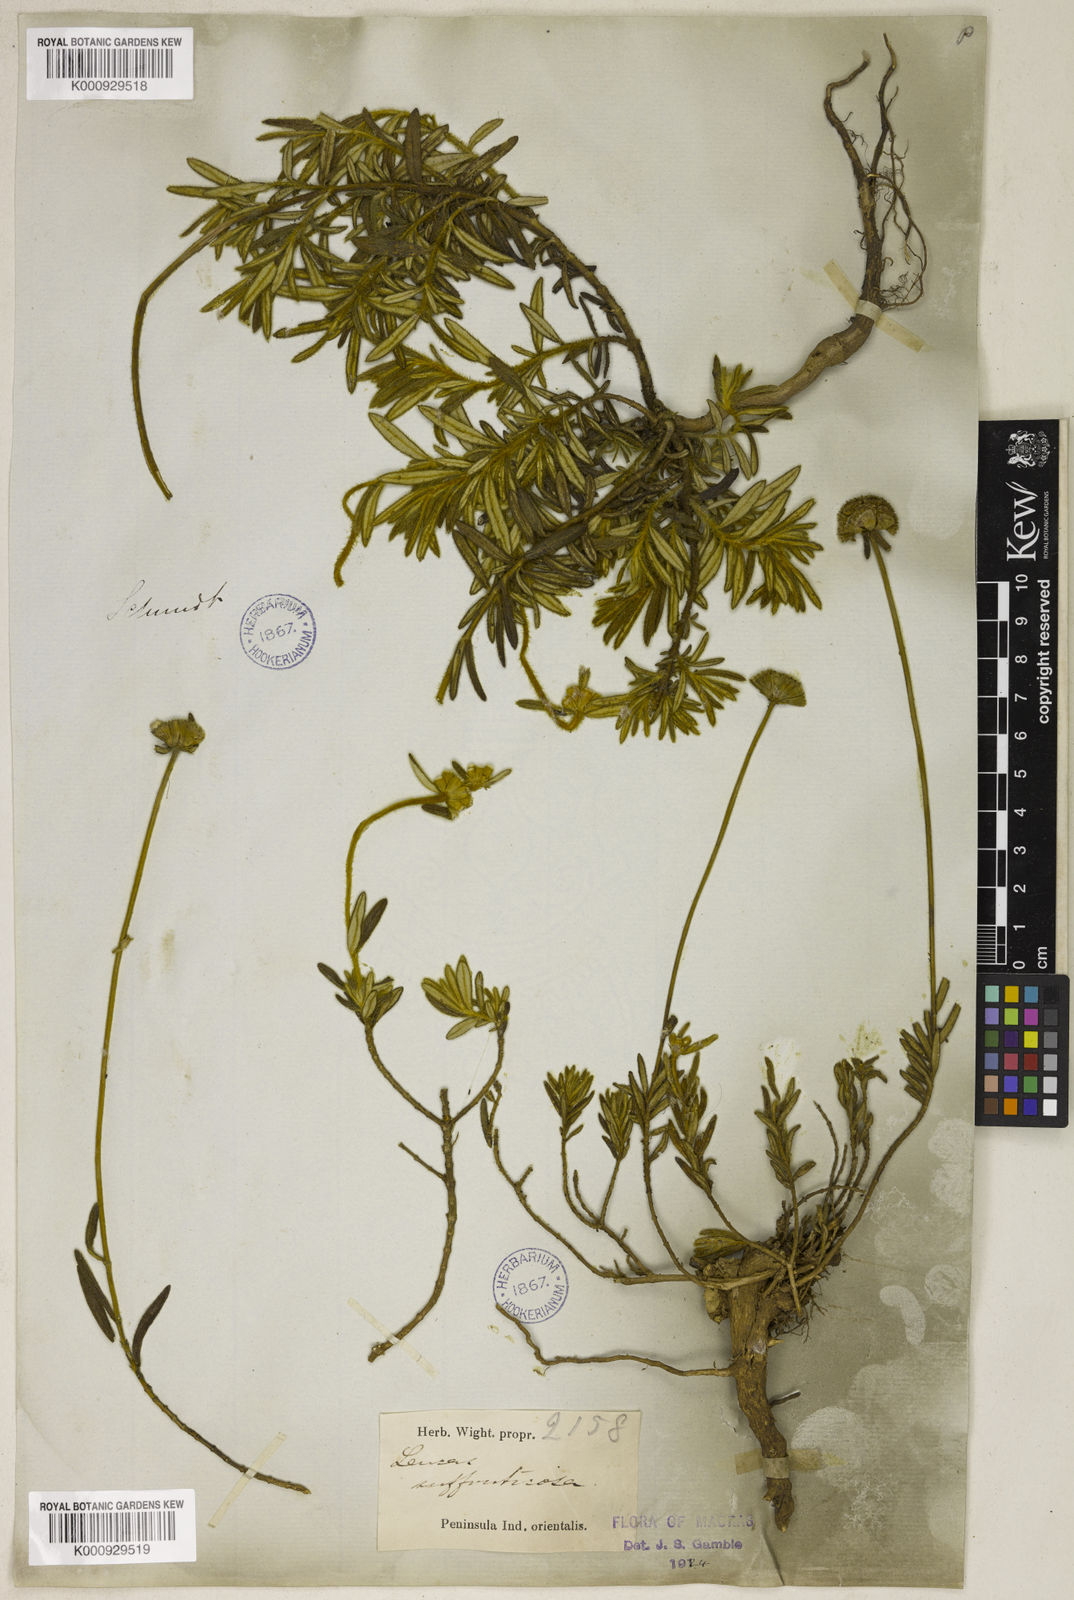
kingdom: Plantae
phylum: Tracheophyta
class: Magnoliopsida
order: Lamiales
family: Lamiaceae
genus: Leucas
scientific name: Leucas suffruticosa
